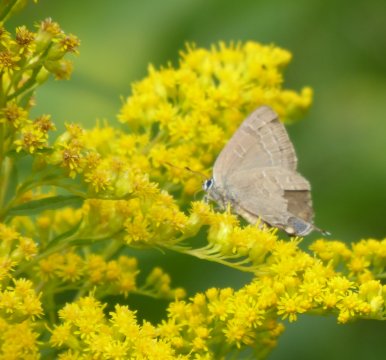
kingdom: Animalia
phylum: Arthropoda
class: Insecta
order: Lepidoptera
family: Lycaenidae
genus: Satyrium
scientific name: Satyrium calanus
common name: Banded Hairstreak
